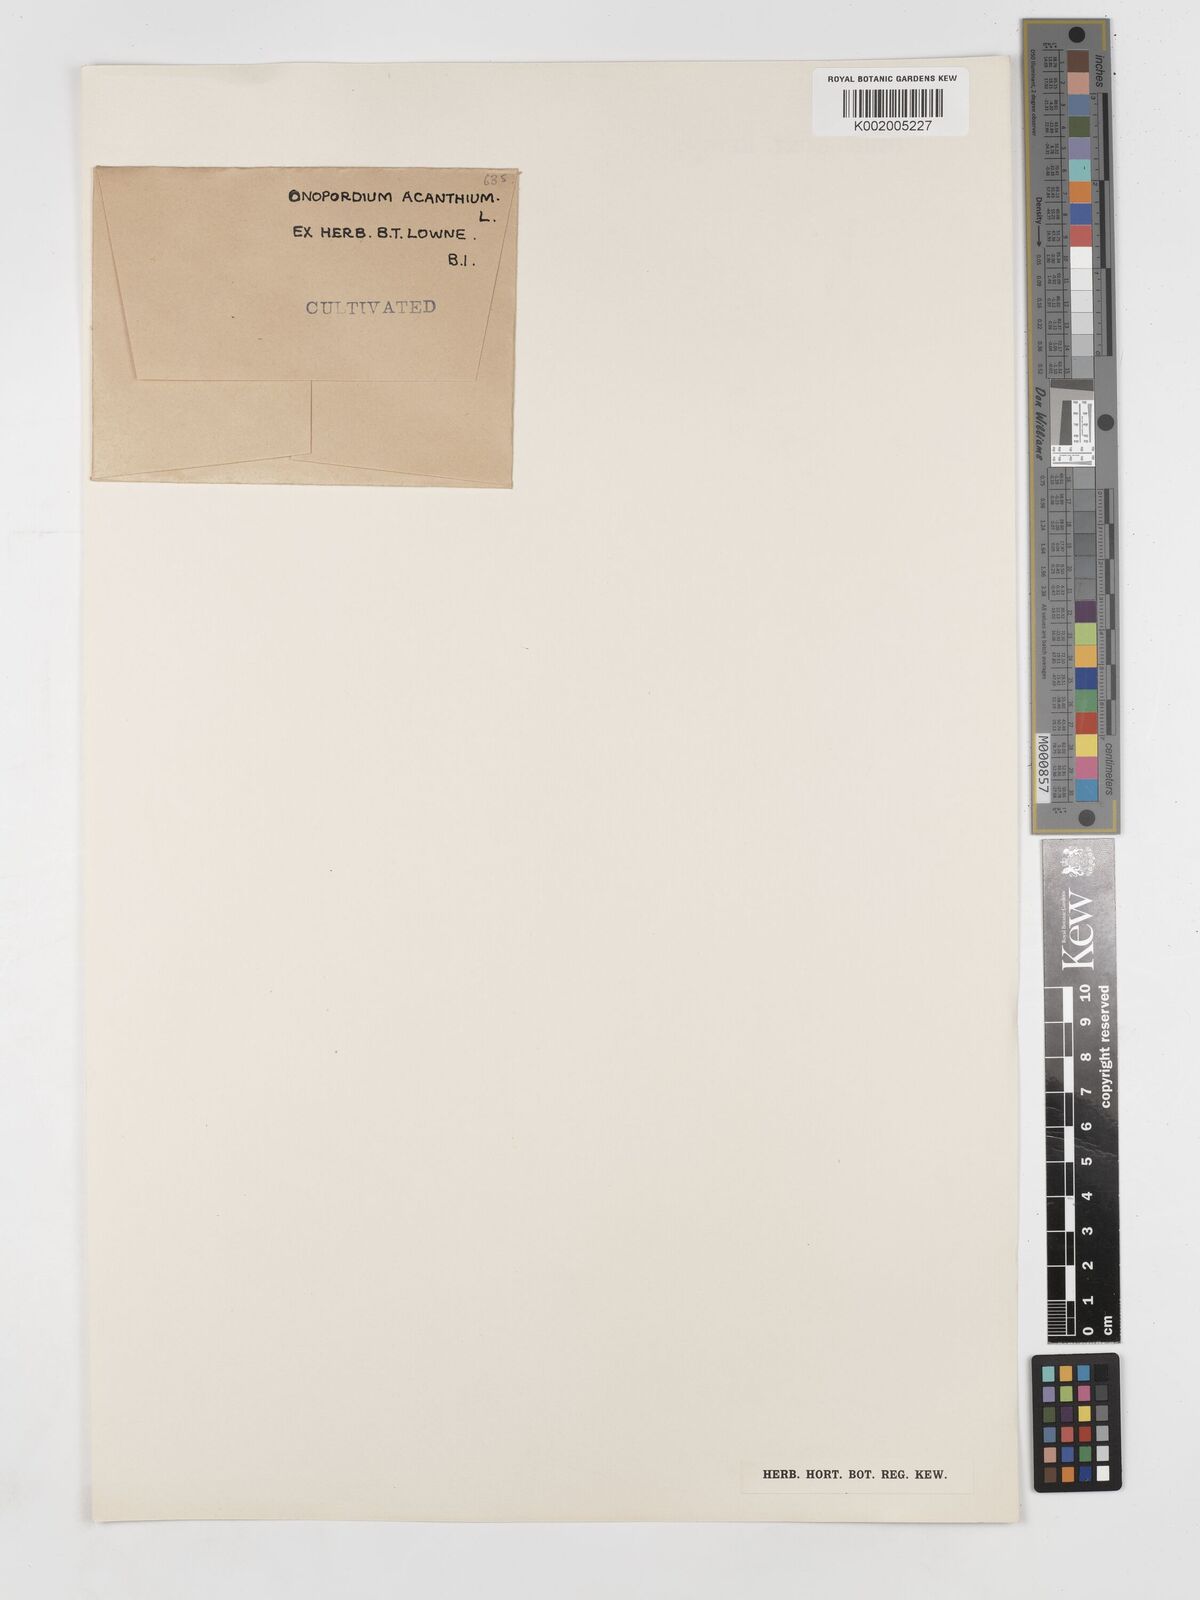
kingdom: Plantae
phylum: Tracheophyta
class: Magnoliopsida
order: Asterales
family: Asteraceae
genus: Onopordum
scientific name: Onopordum acanthium
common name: Scotch thistle
